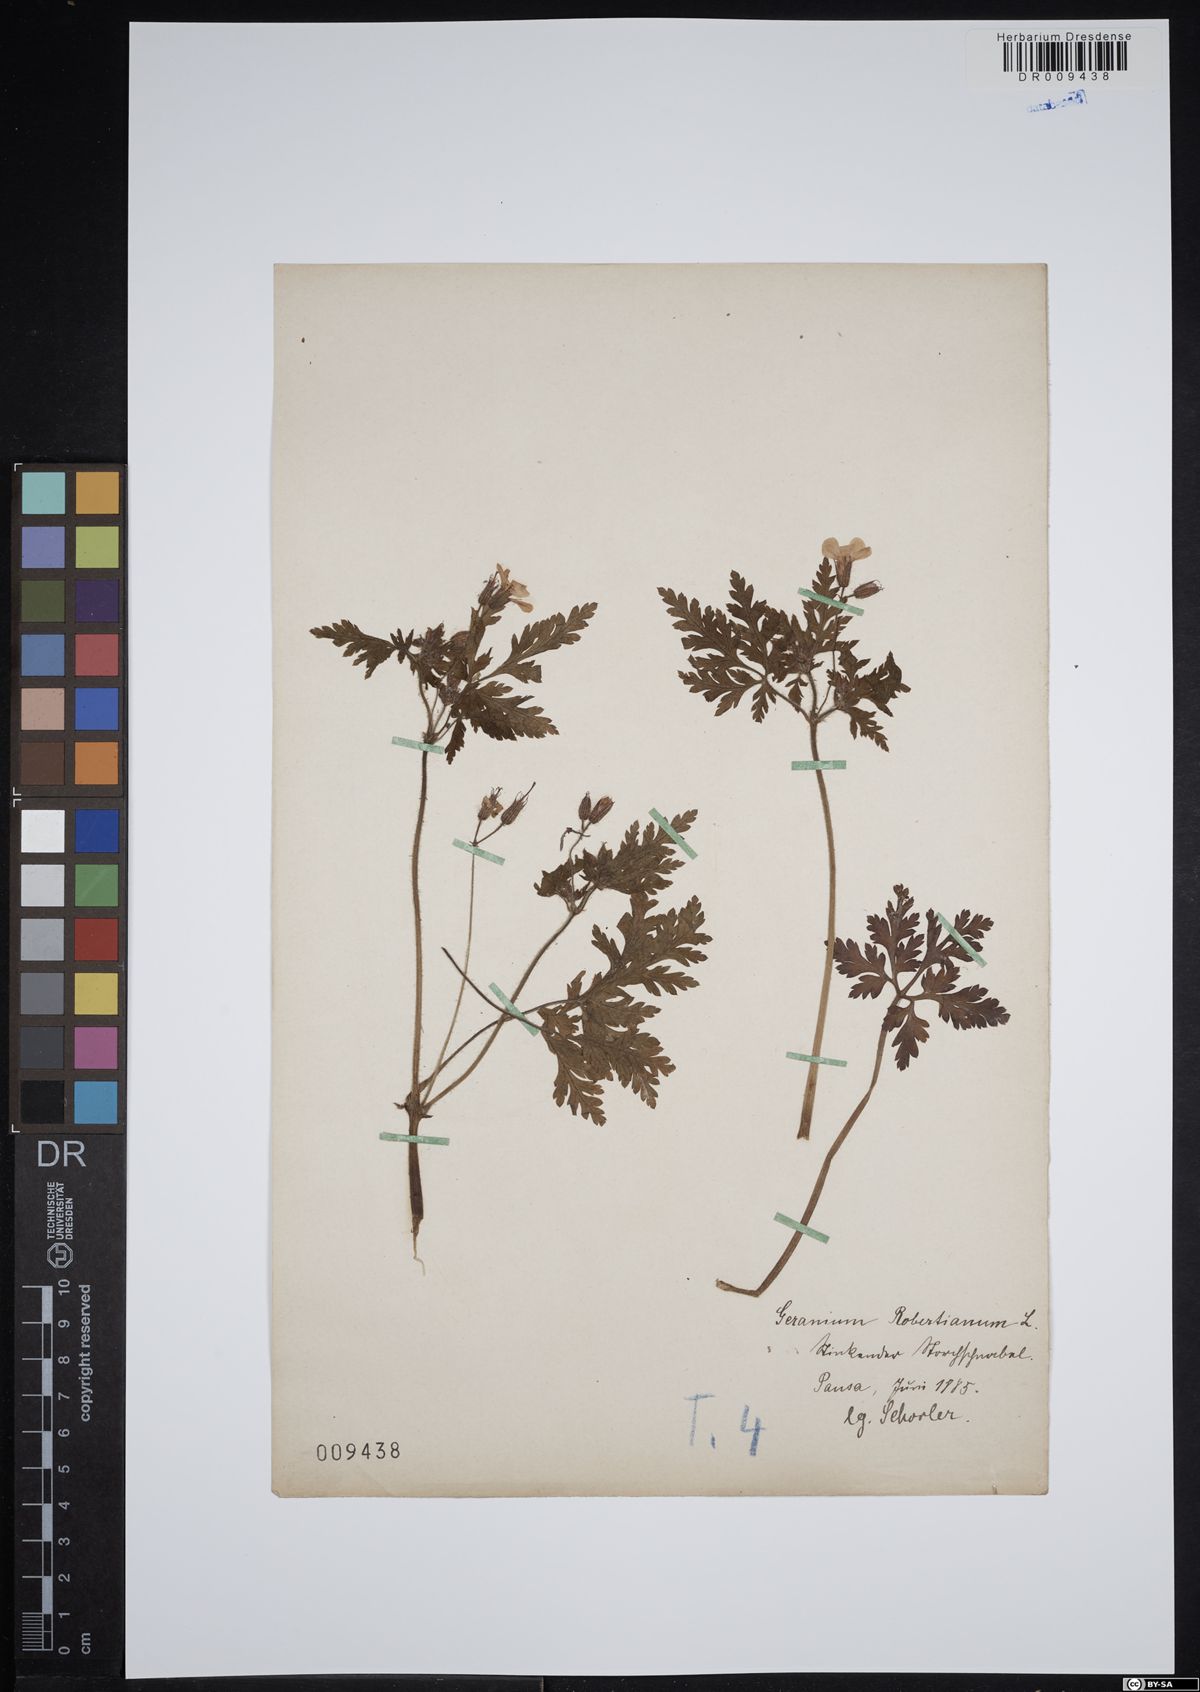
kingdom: Plantae
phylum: Tracheophyta
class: Magnoliopsida
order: Geraniales
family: Geraniaceae
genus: Geranium
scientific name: Geranium robertianum
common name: Herb-robert
